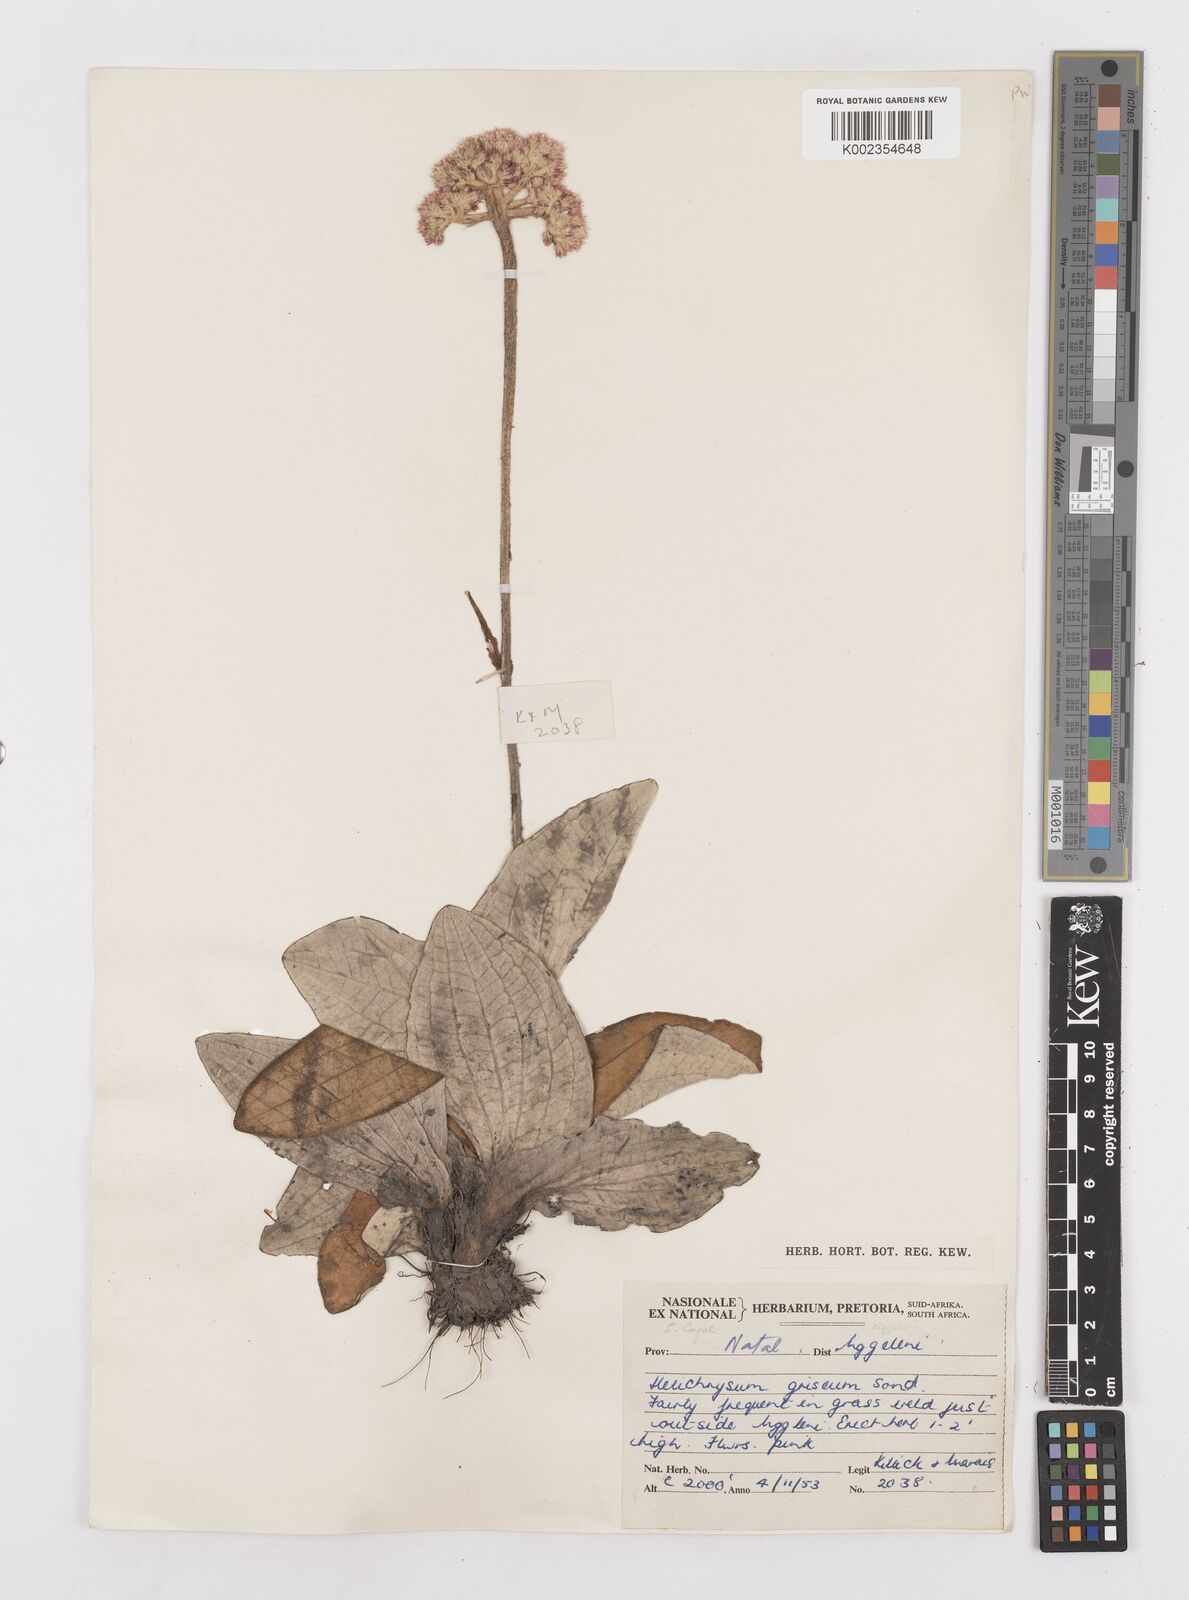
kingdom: Plantae
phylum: Tracheophyta
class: Magnoliopsida
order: Asterales
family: Asteraceae
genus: Helichrysum
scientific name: Helichrysum griseum
